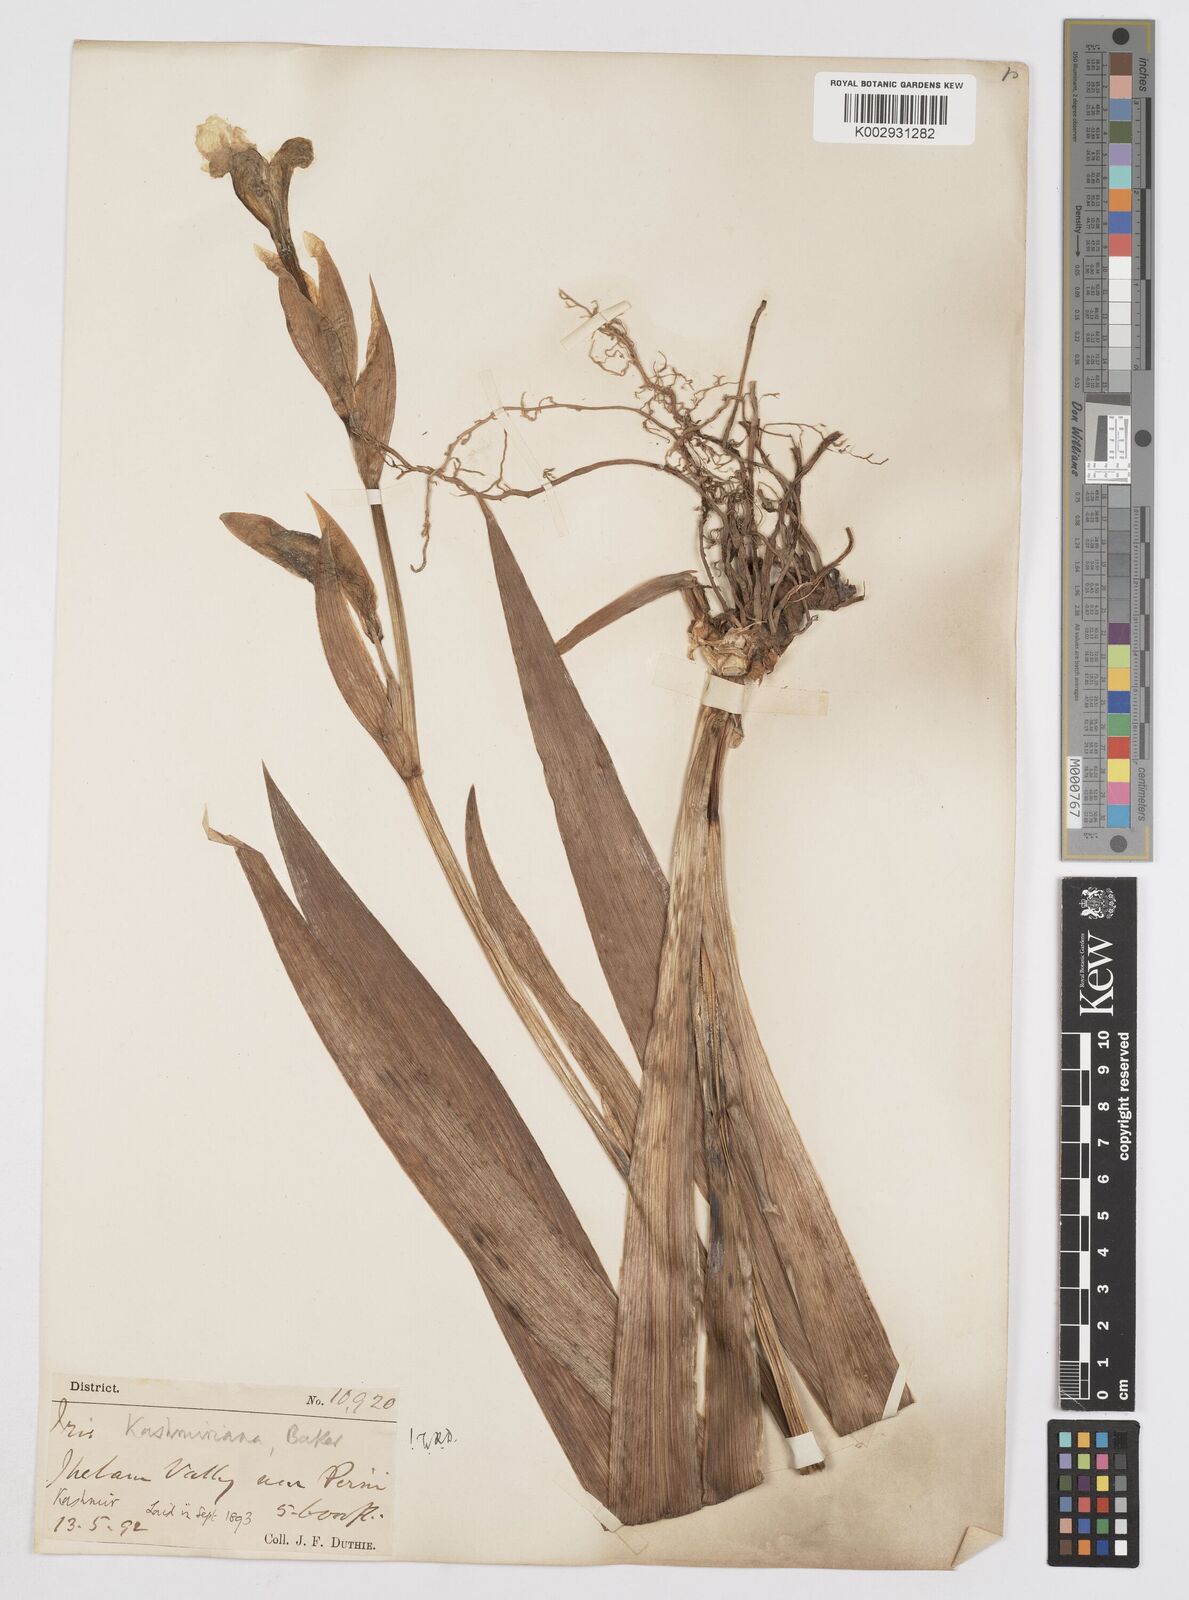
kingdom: Plantae
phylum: Tracheophyta
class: Liliopsida
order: Asparagales
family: Iridaceae
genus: Iris
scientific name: Iris kashmiriana
